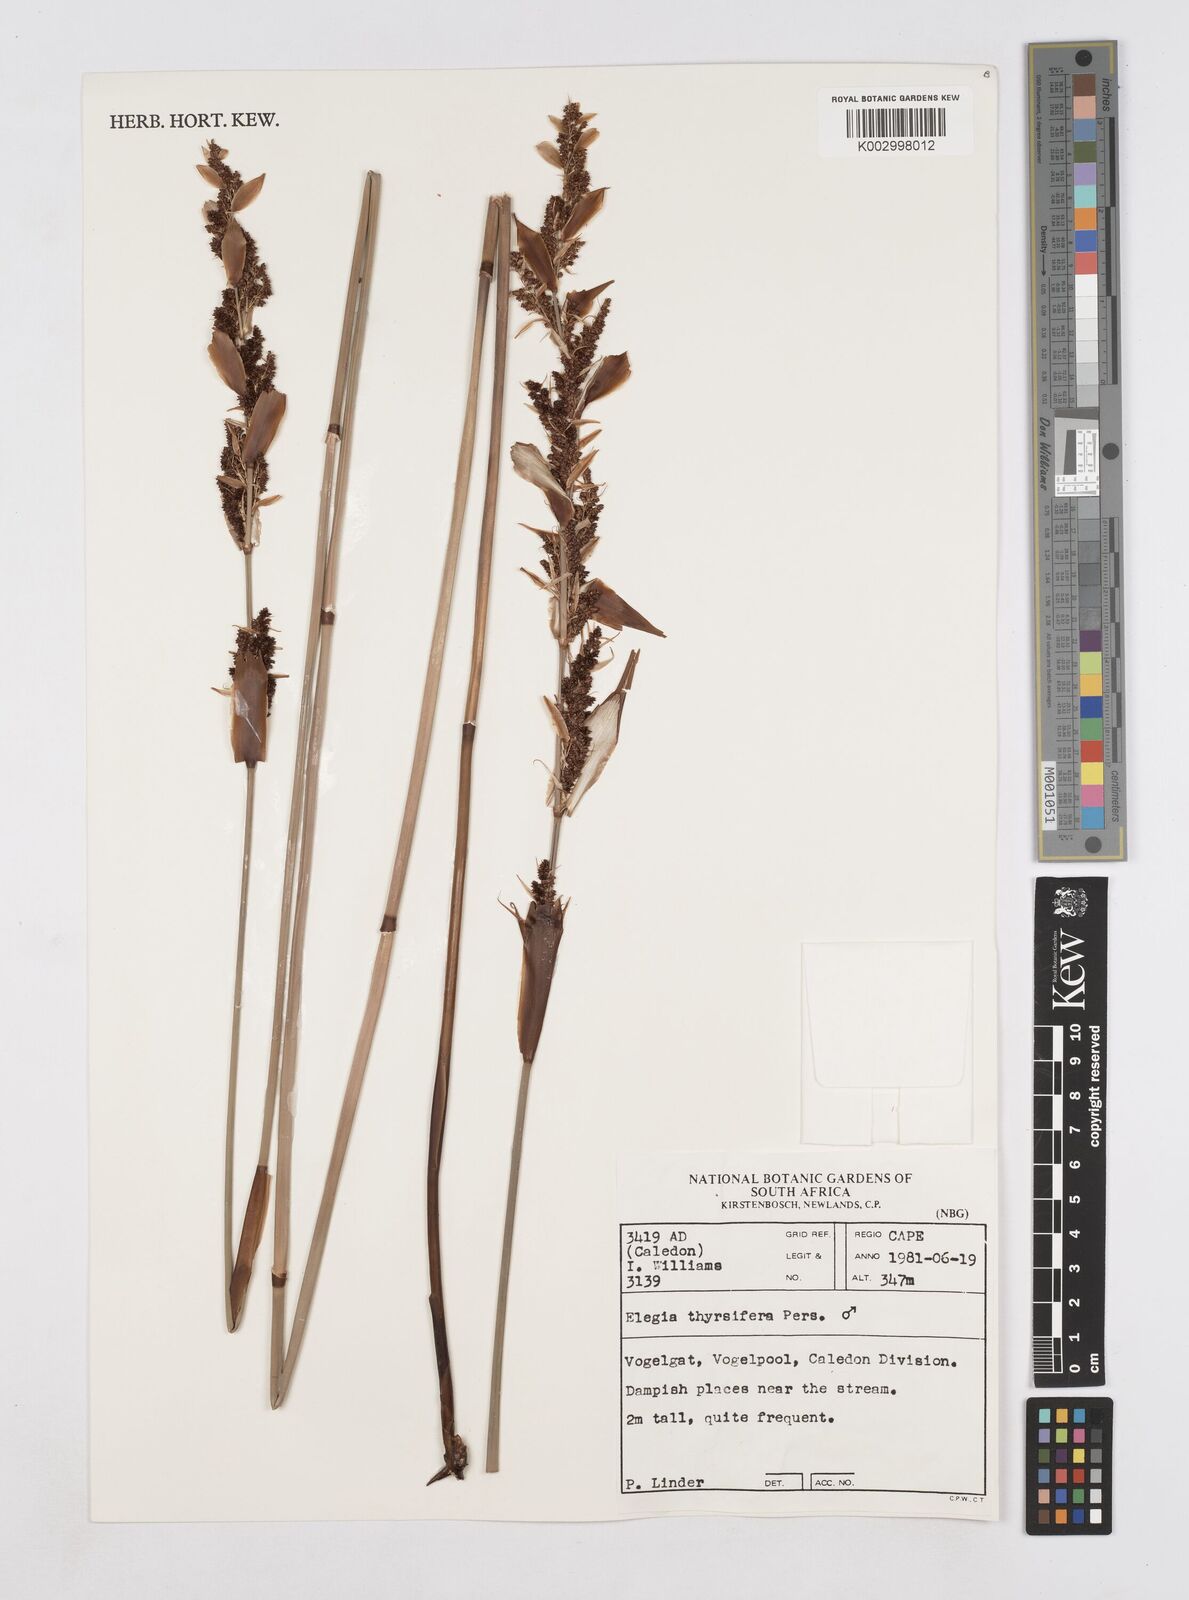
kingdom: Plantae
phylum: Tracheophyta
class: Liliopsida
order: Poales
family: Restionaceae
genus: Elegia
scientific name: Elegia thyrsifera
